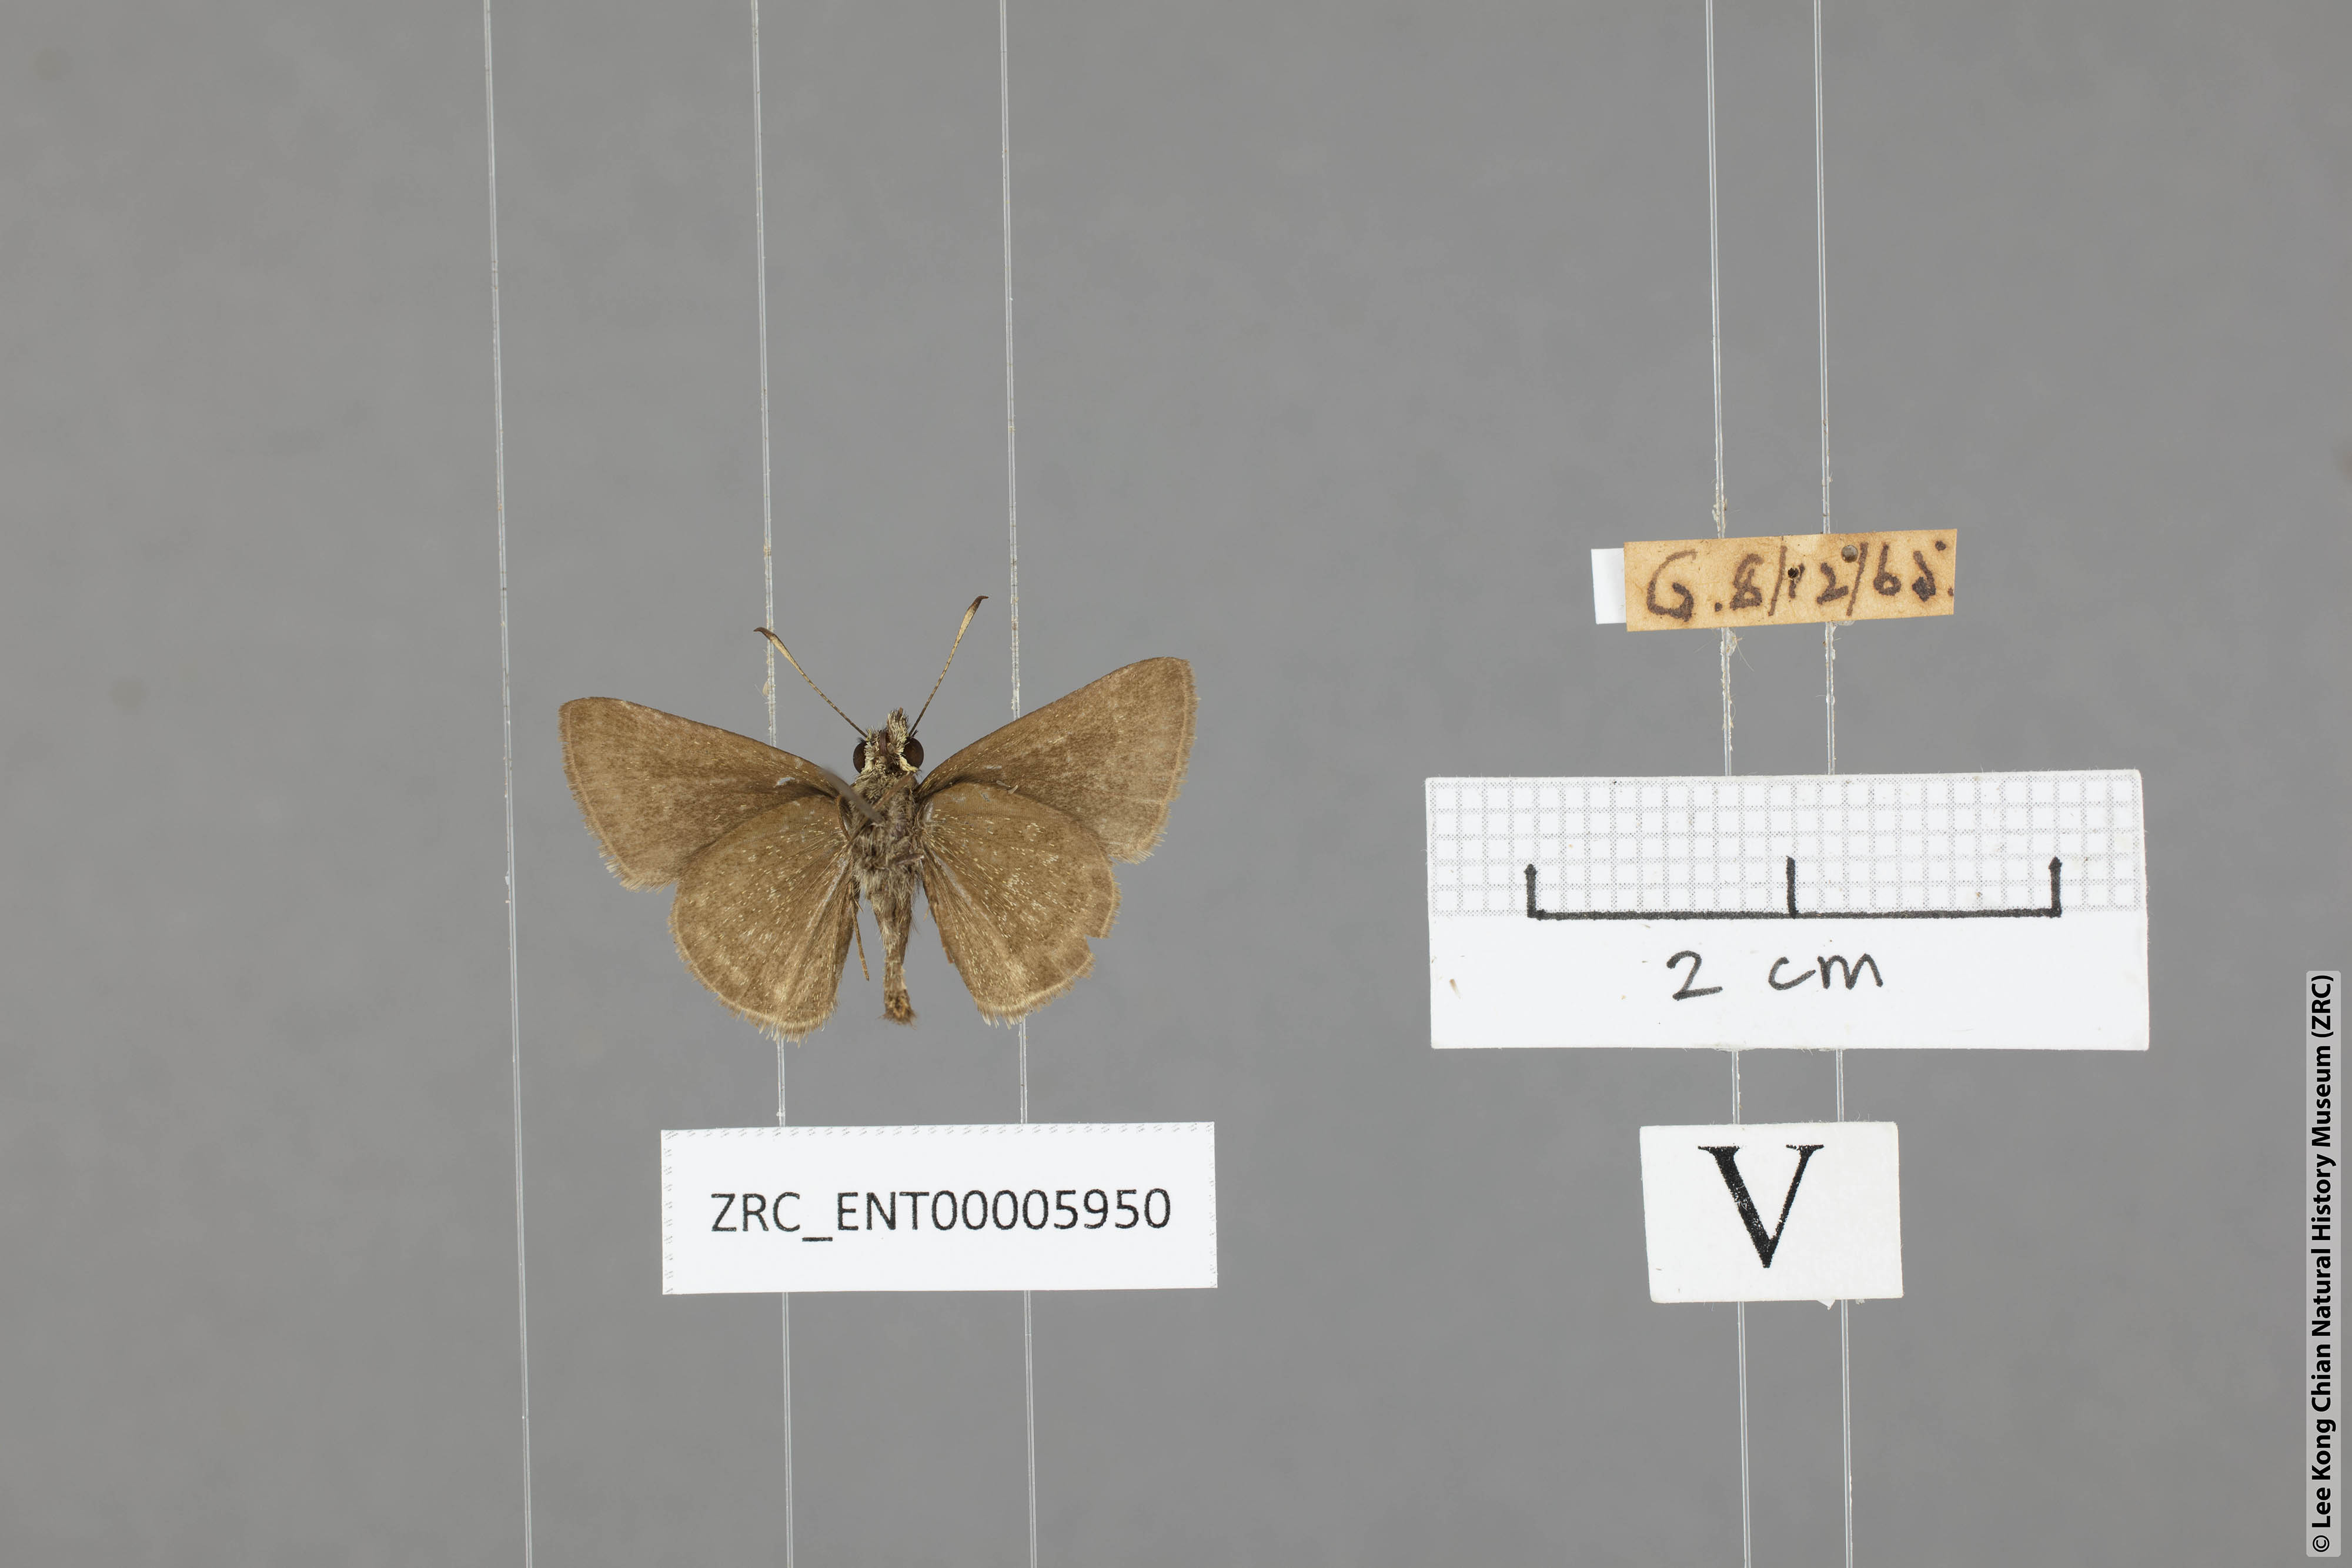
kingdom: Animalia
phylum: Arthropoda
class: Insecta
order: Lepidoptera
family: Hesperiidae
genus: Aeromachus
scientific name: Aeromachus jhora
